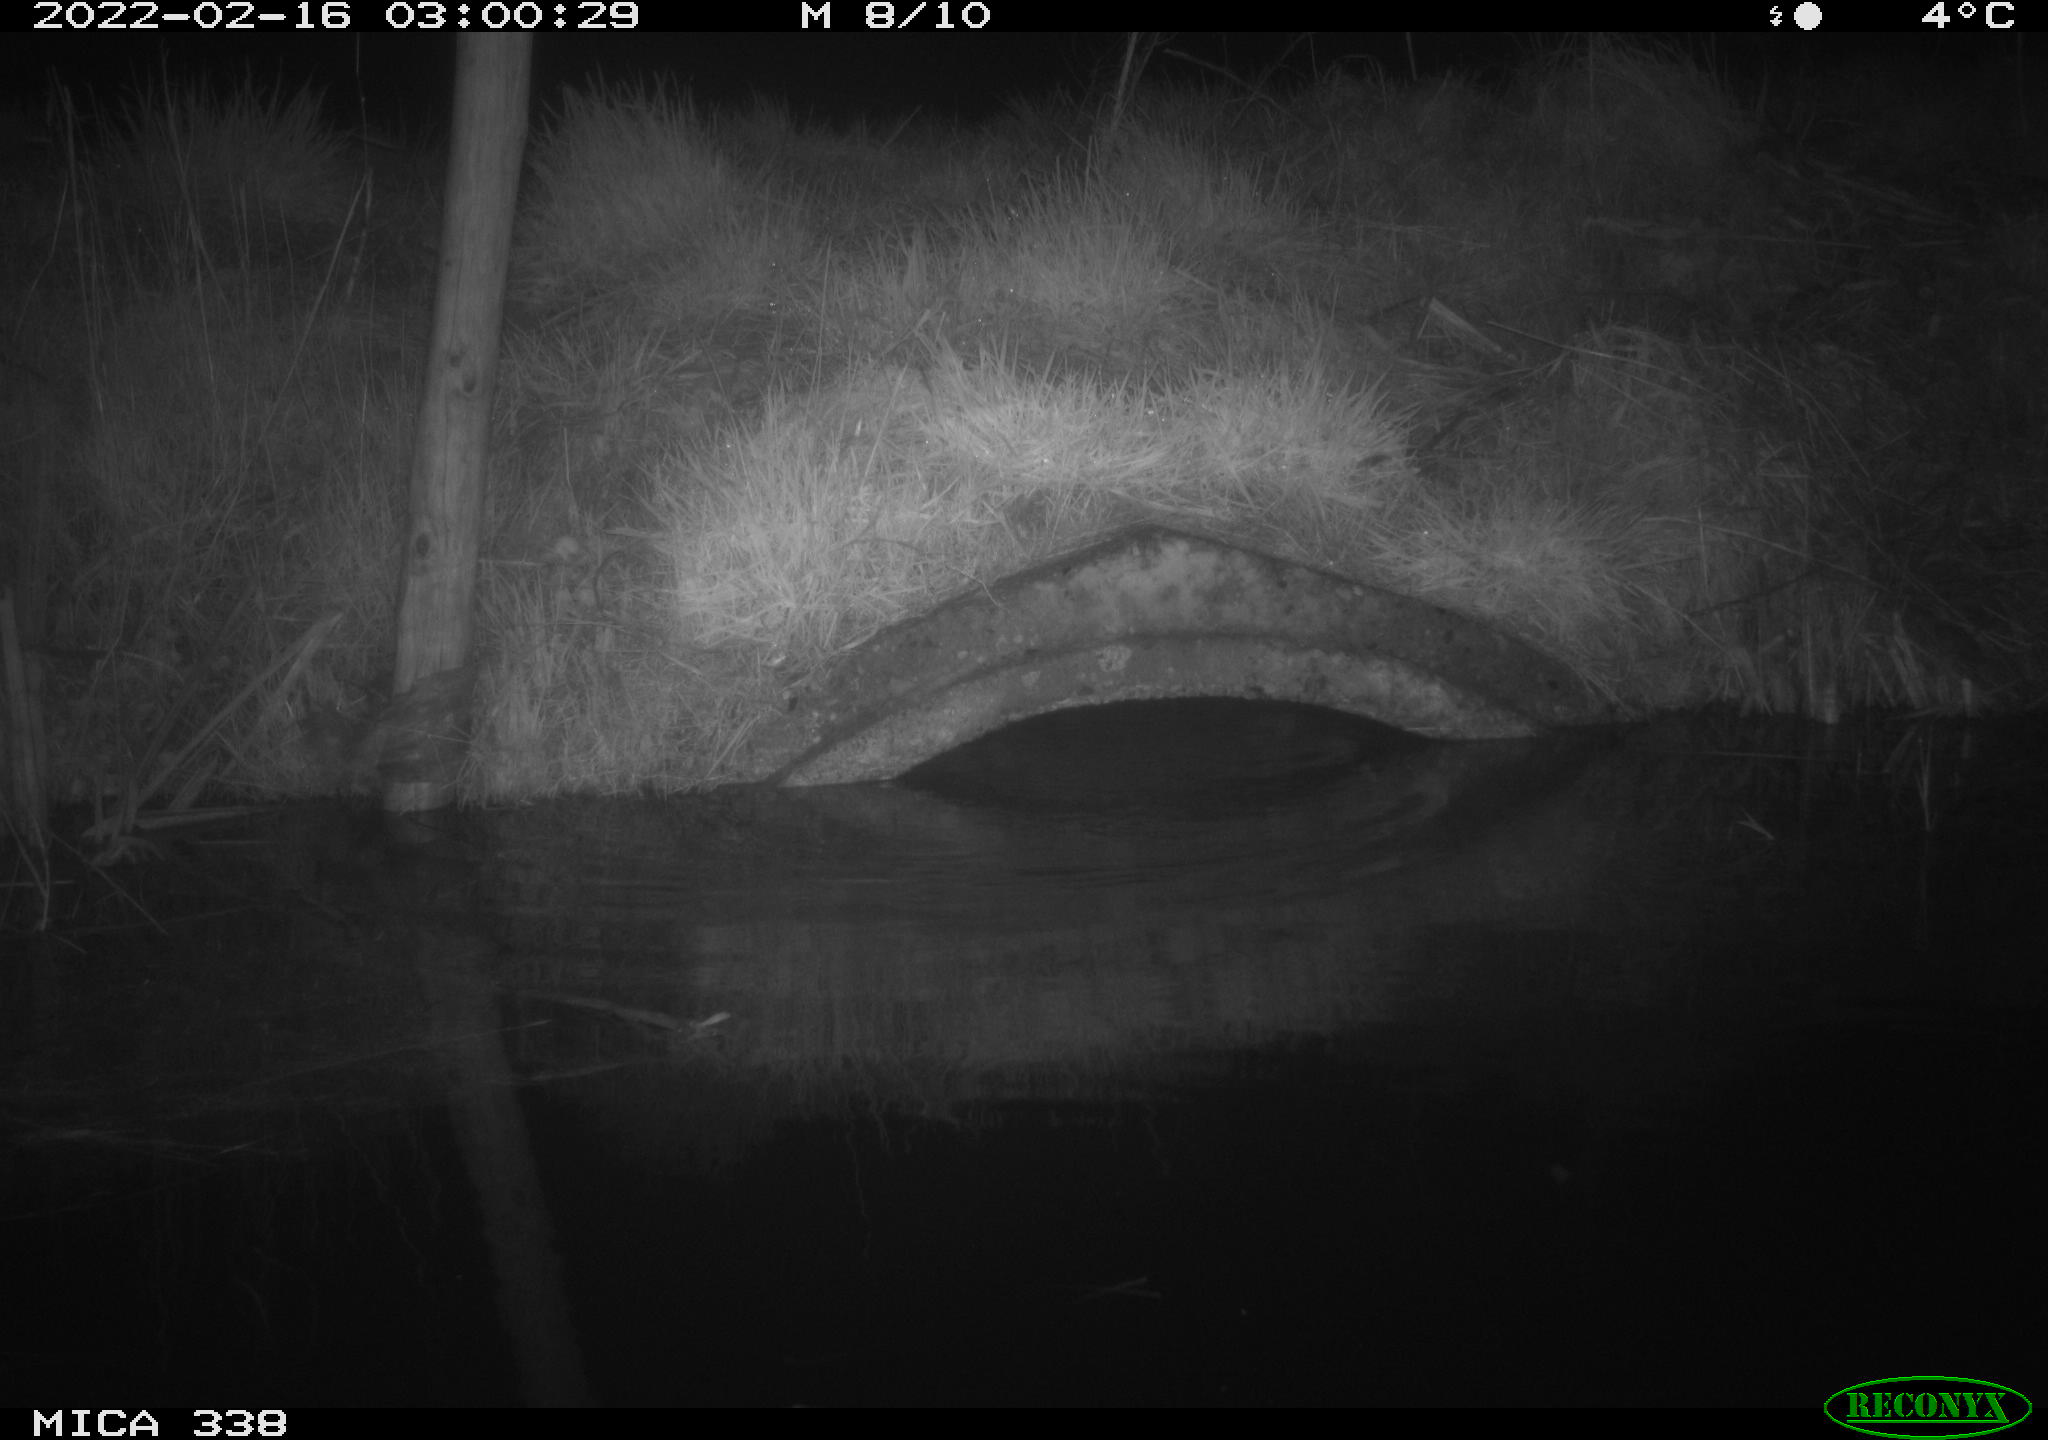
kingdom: Animalia
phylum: Chordata
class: Mammalia
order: Rodentia
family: Muridae
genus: Rattus
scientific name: Rattus norvegicus
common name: Brown rat
